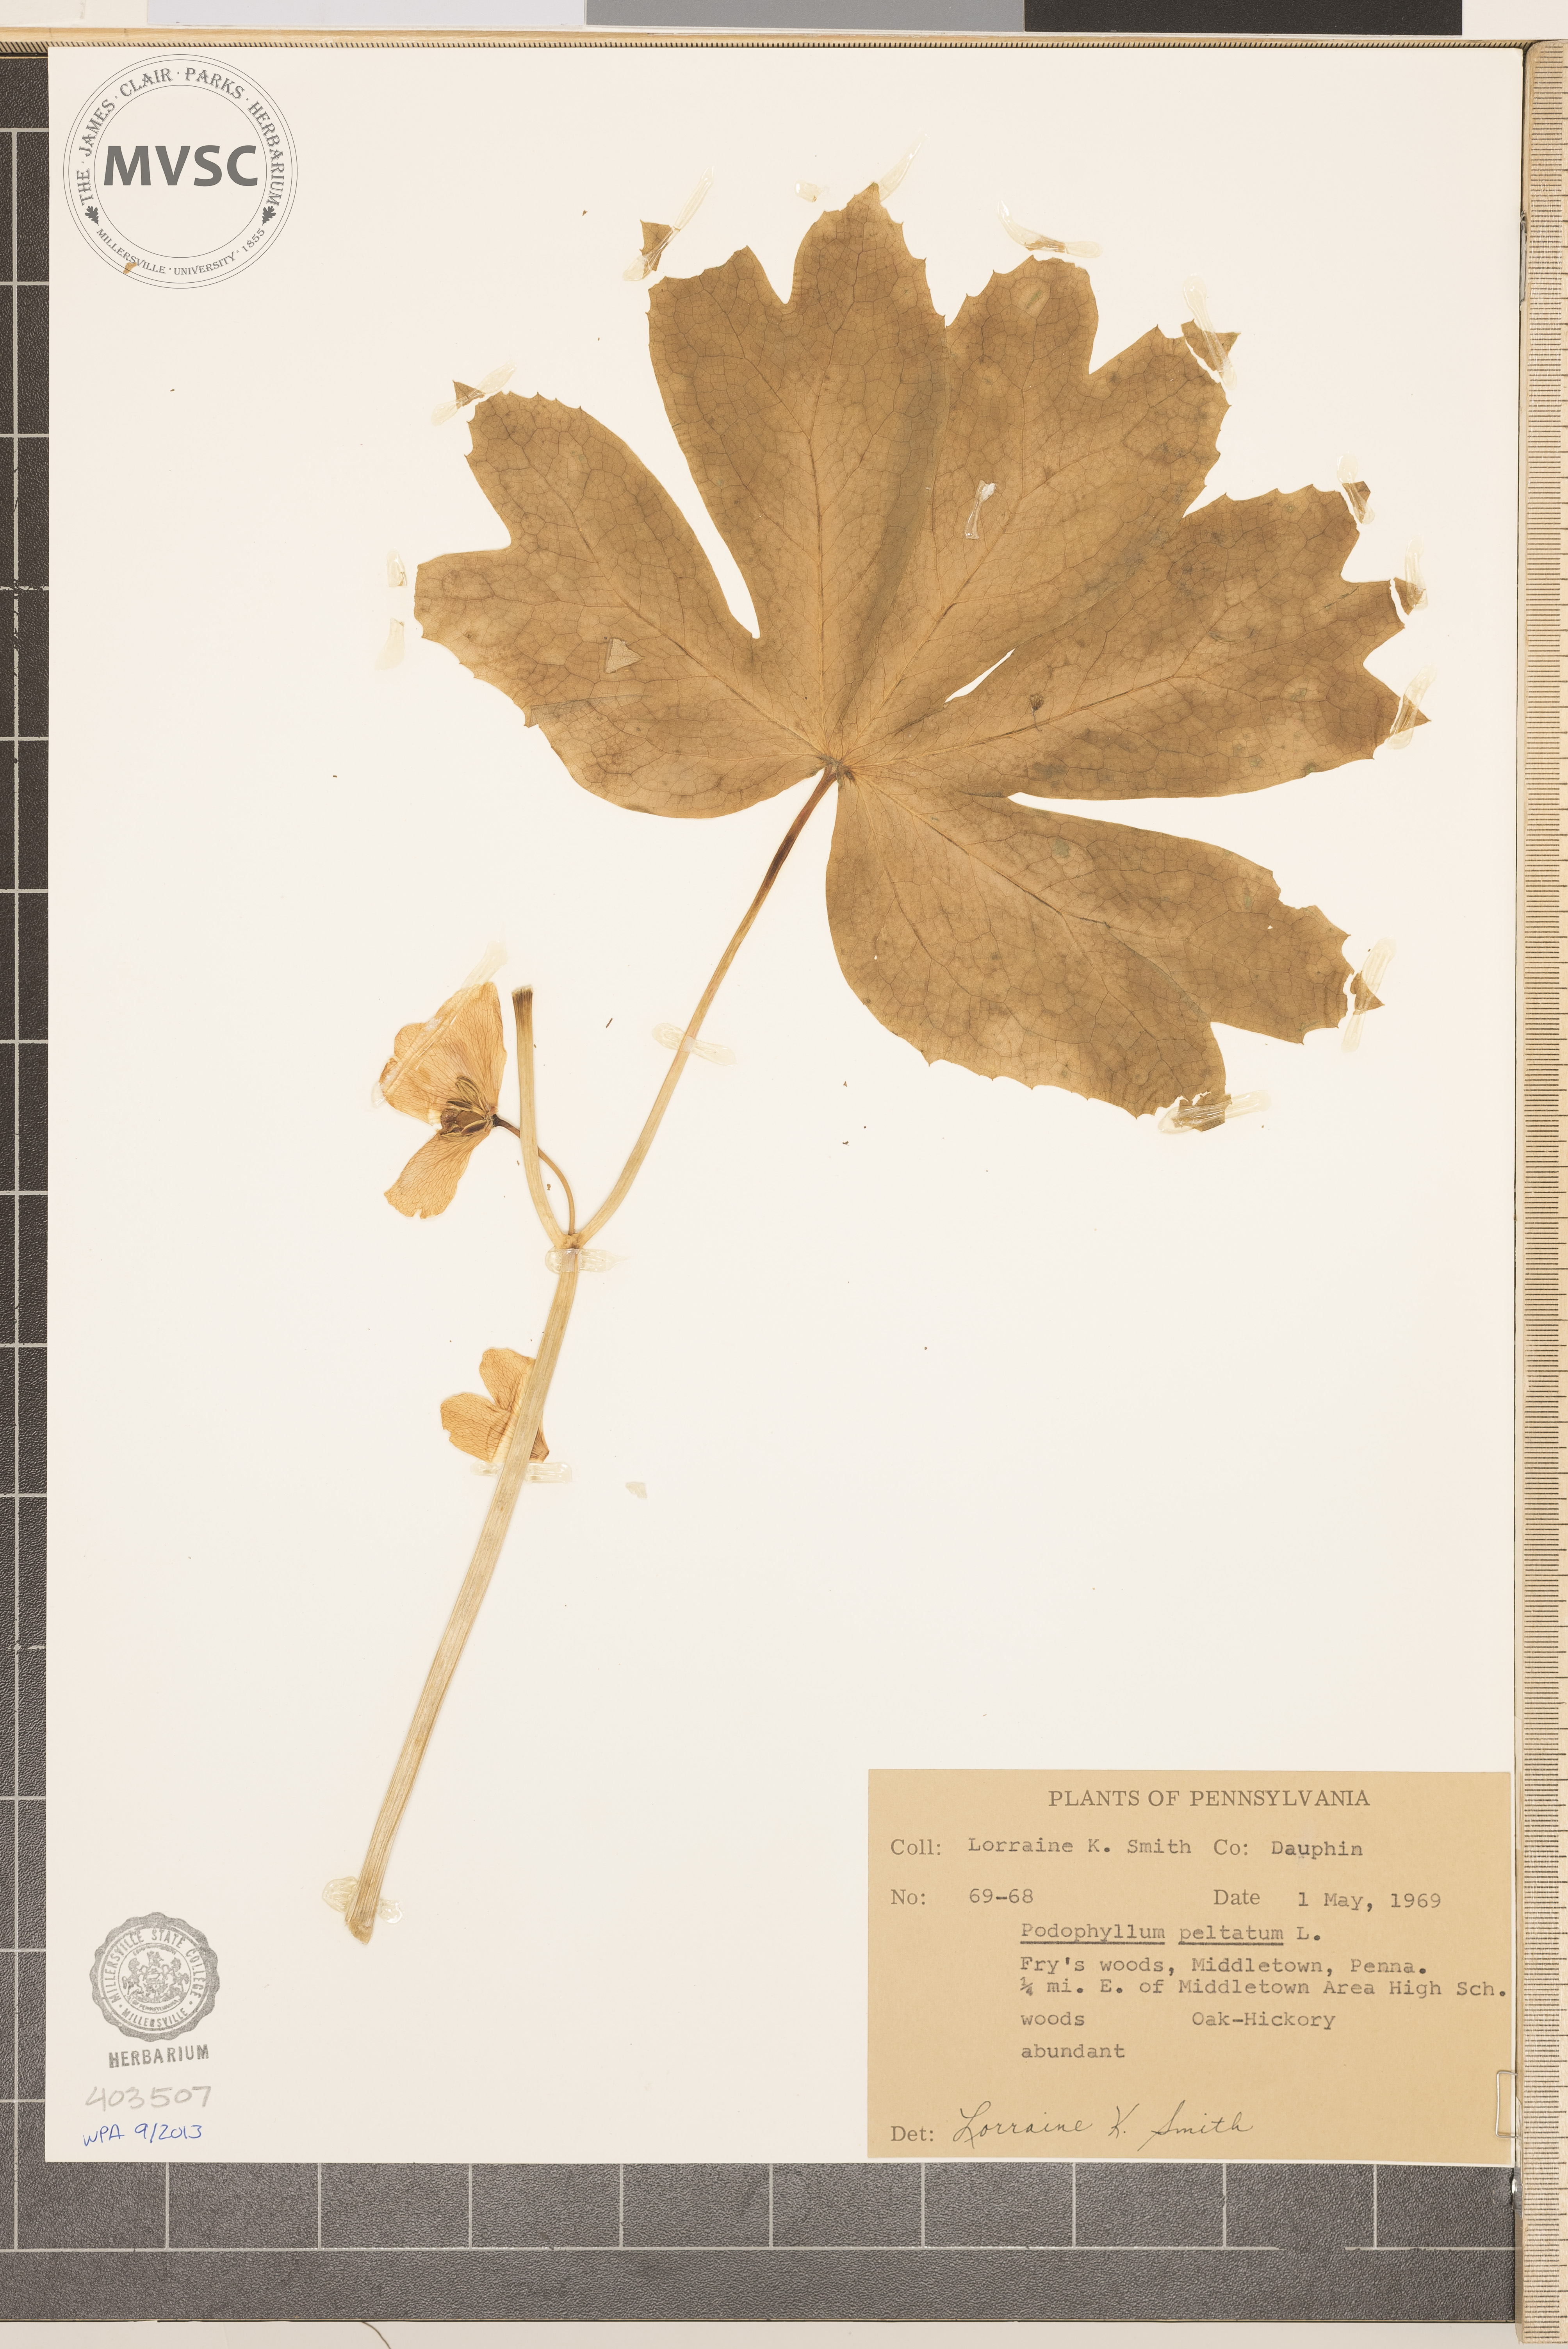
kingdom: Plantae
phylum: Tracheophyta
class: Magnoliopsida
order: Ranunculales
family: Berberidaceae
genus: Podophyllum
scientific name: Podophyllum peltatum
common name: May-Apple
